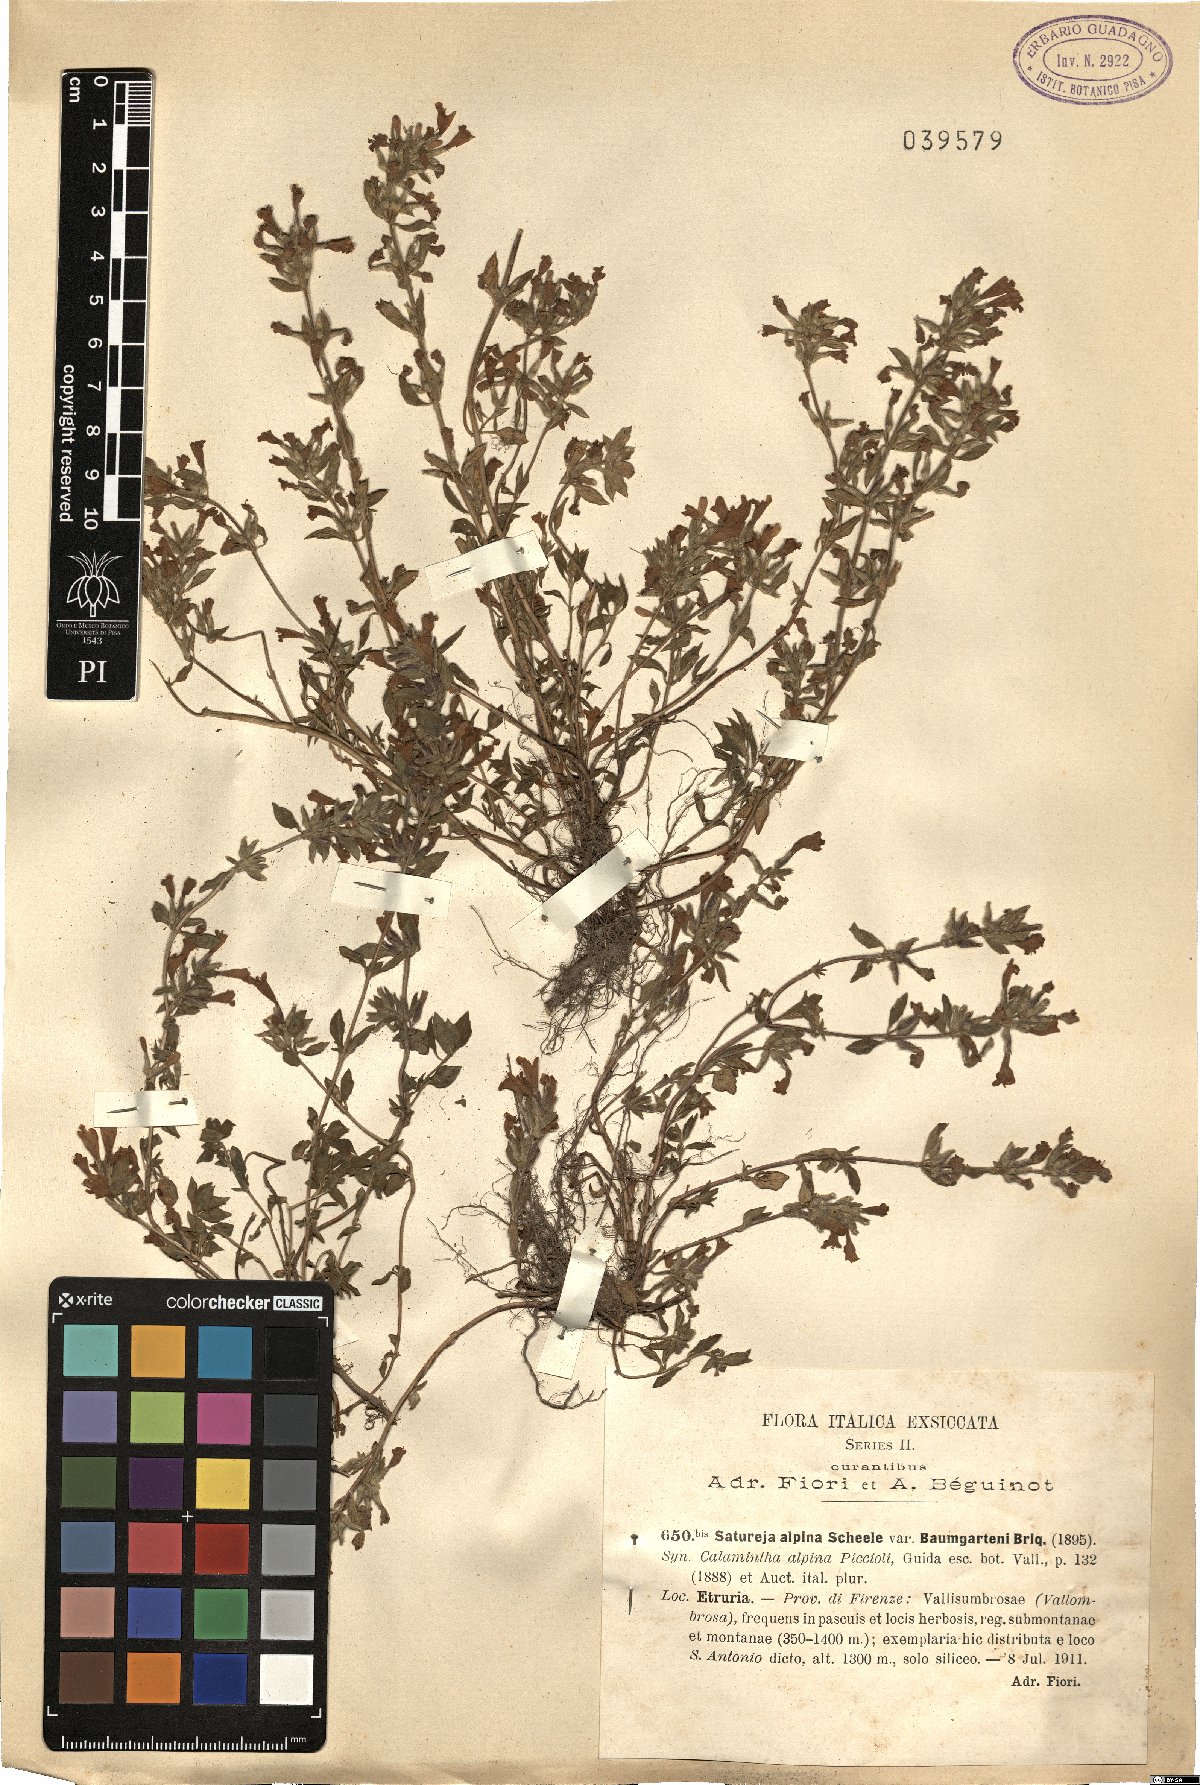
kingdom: Plantae
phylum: Tracheophyta
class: Magnoliopsida
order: Lamiales
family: Lamiaceae
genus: Clinopodium
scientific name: Clinopodium alpinum
